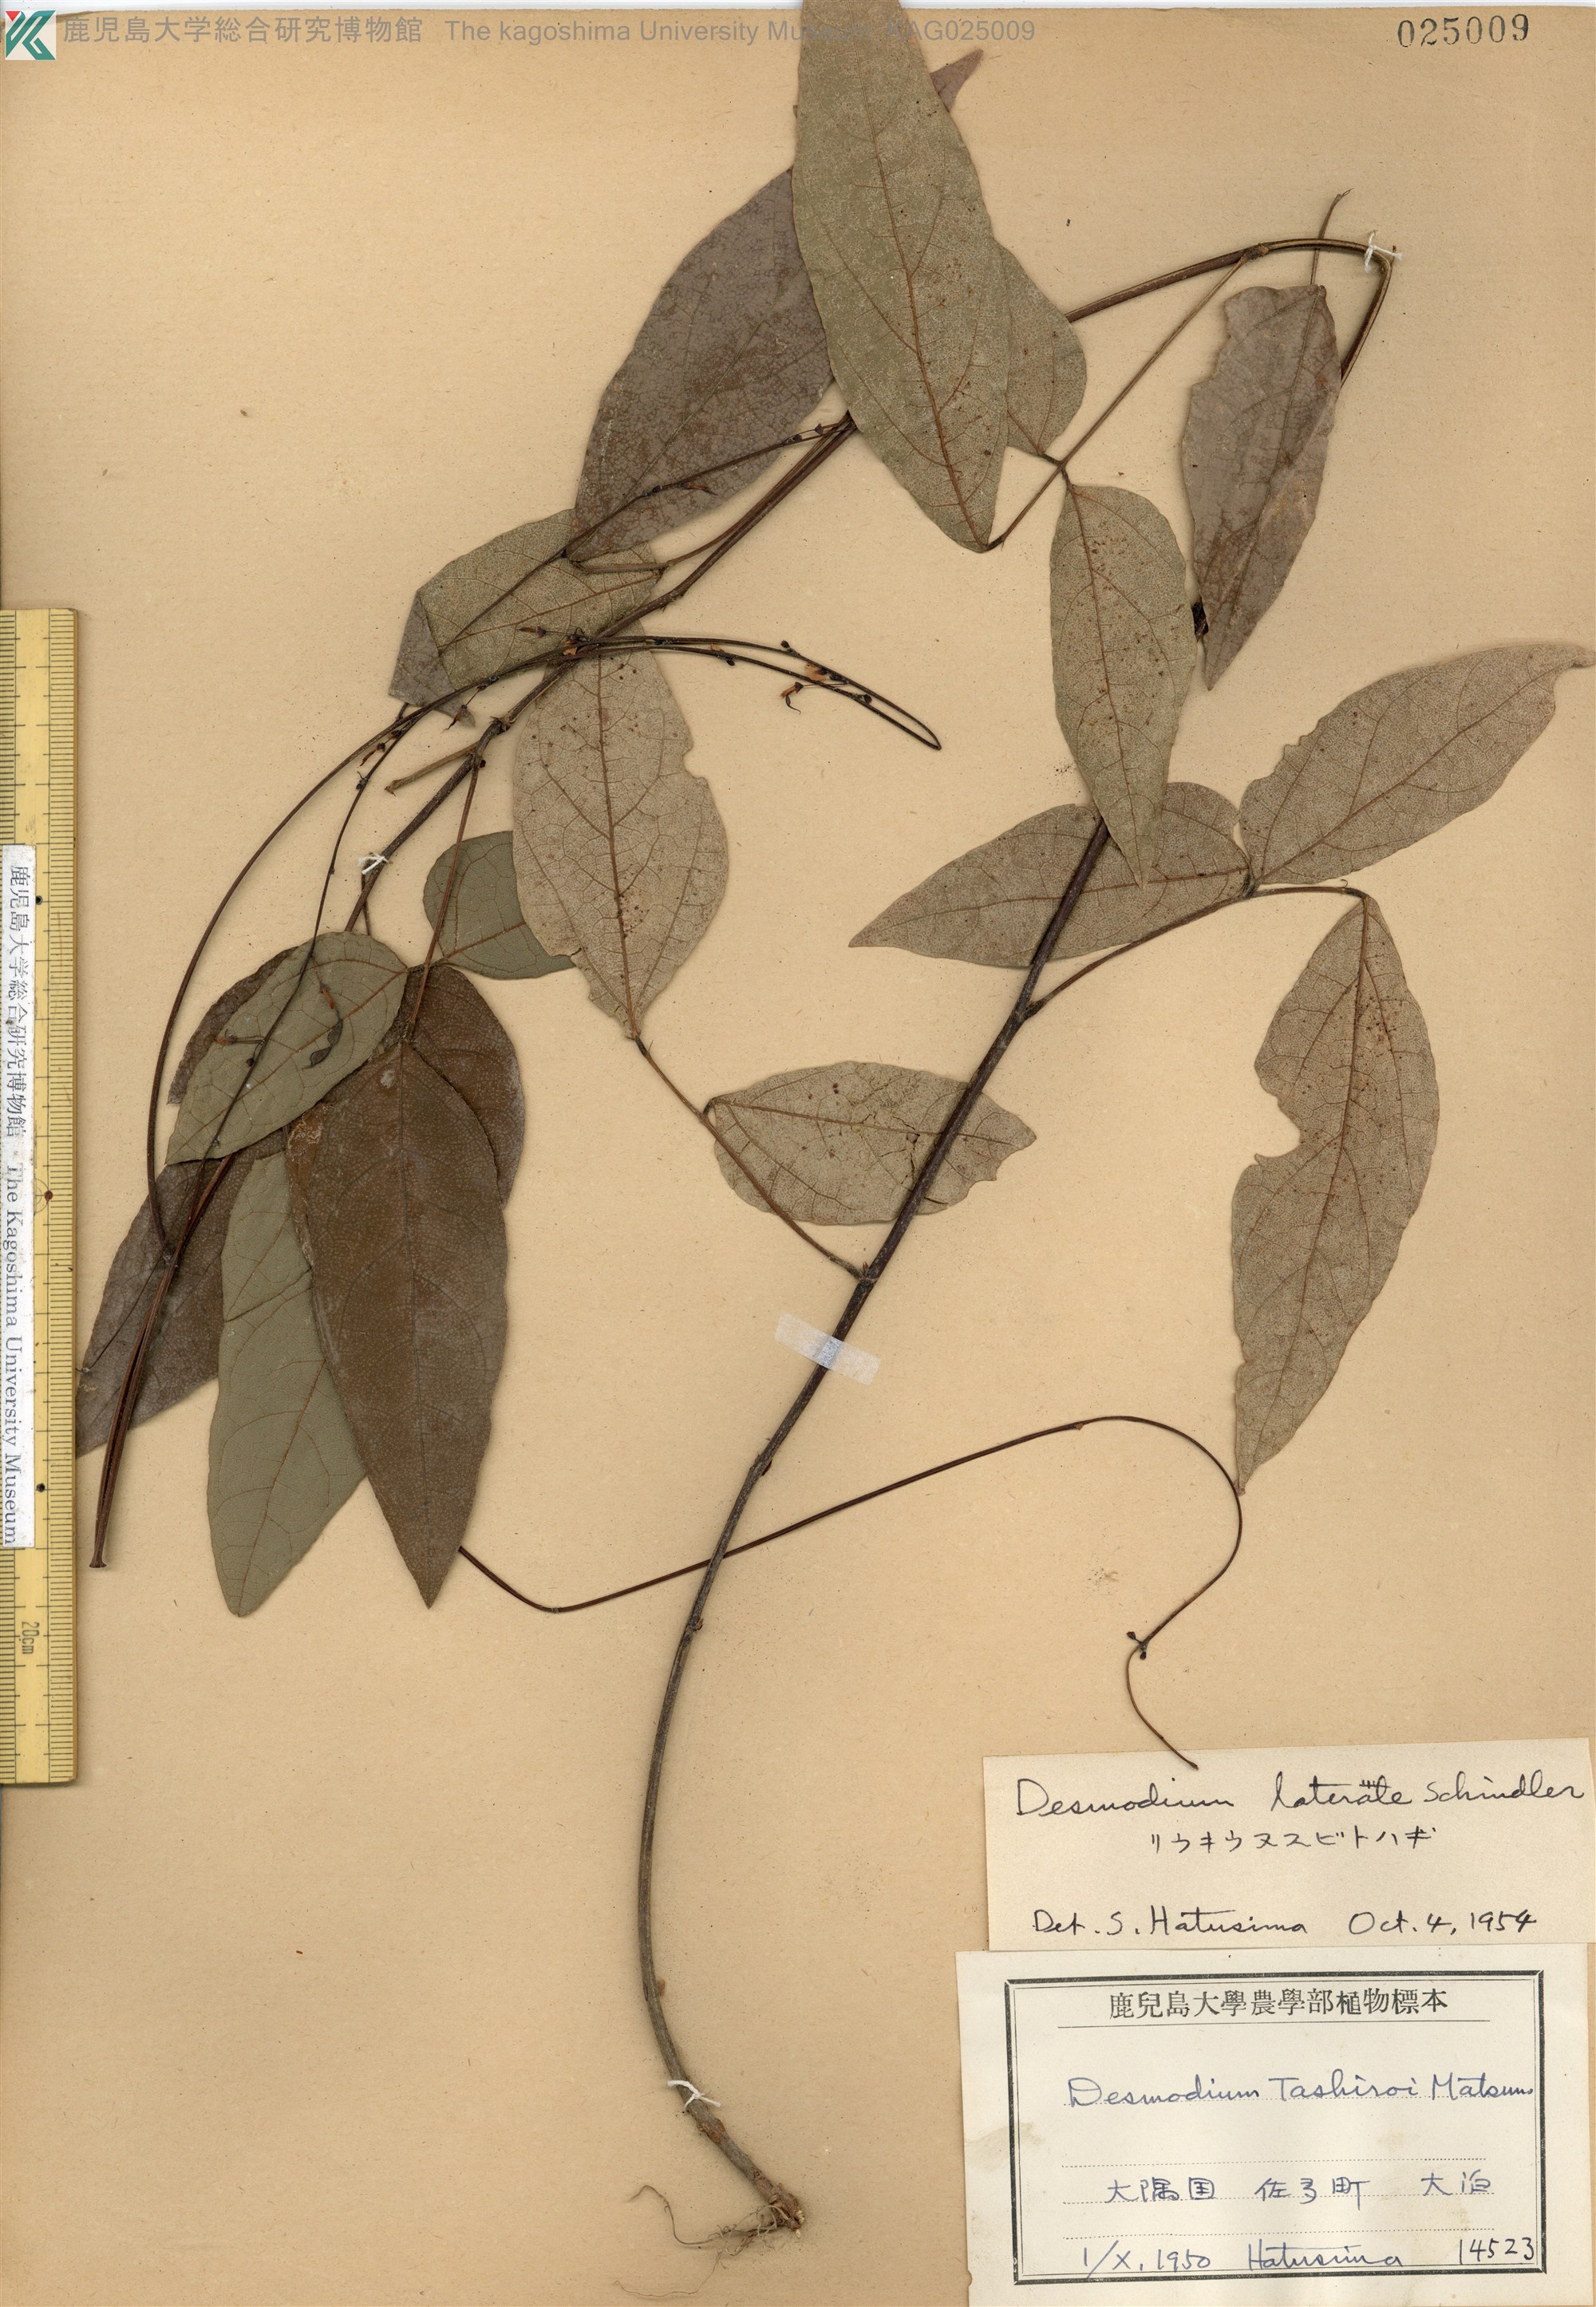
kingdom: Plantae
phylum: Tracheophyta
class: Magnoliopsida
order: Fabales
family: Fabaceae
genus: Hylodesmum
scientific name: Hylodesmum laterale
